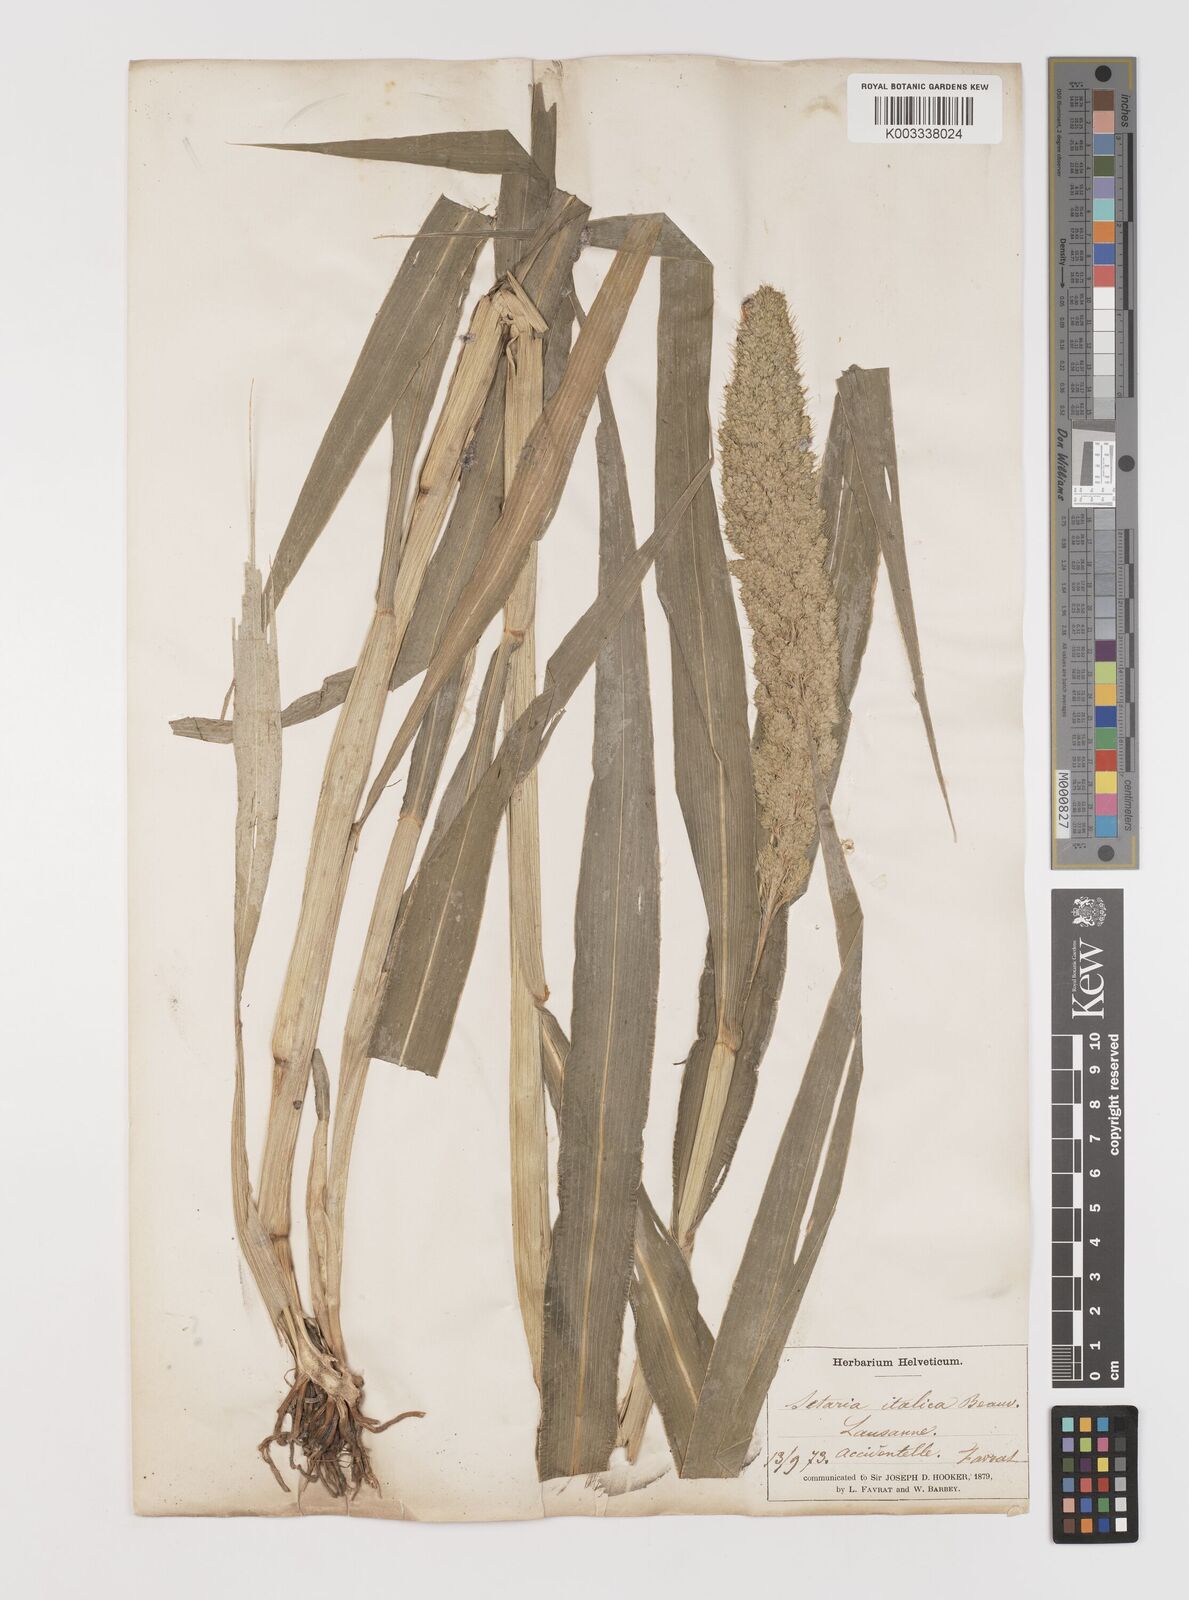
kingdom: Plantae
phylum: Tracheophyta
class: Liliopsida
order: Poales
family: Poaceae
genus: Setaria
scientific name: Setaria italica
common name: Foxtail bristle-grass
